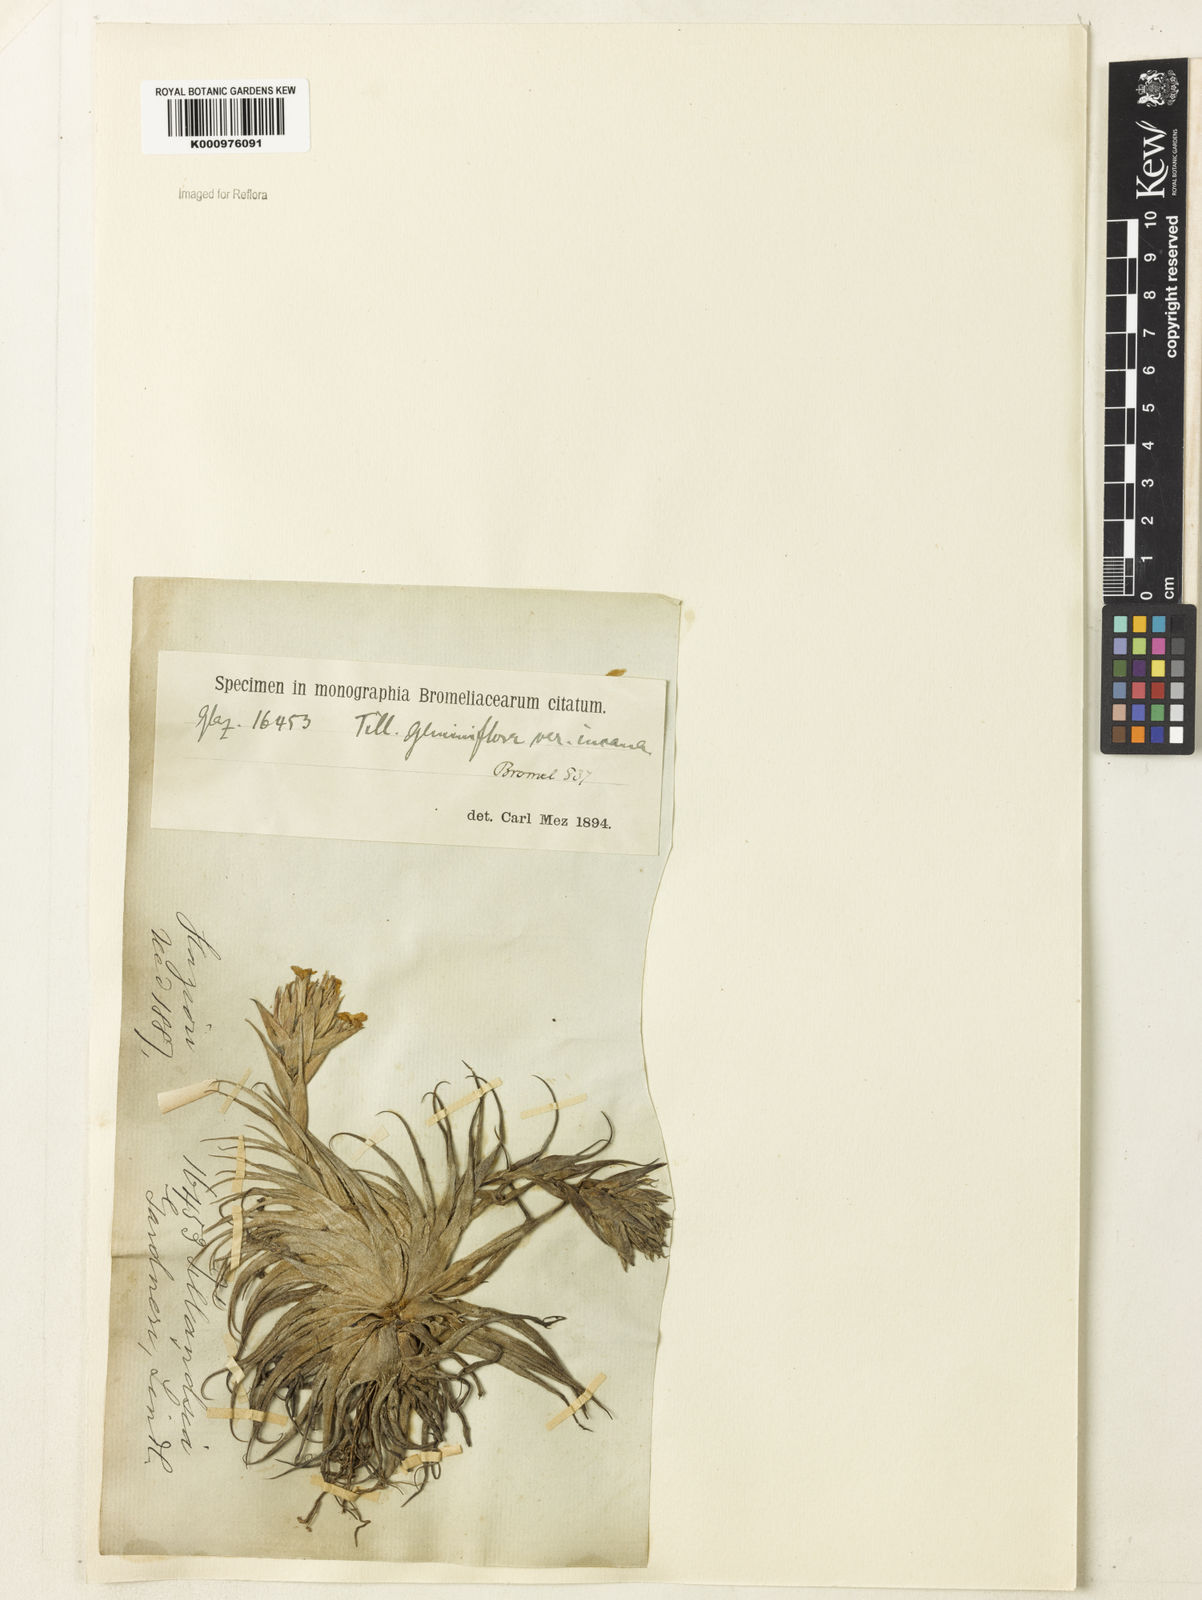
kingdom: Plantae
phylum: Tracheophyta
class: Liliopsida
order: Poales
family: Bromeliaceae
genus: Tillandsia
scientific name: Tillandsia geminiflora
